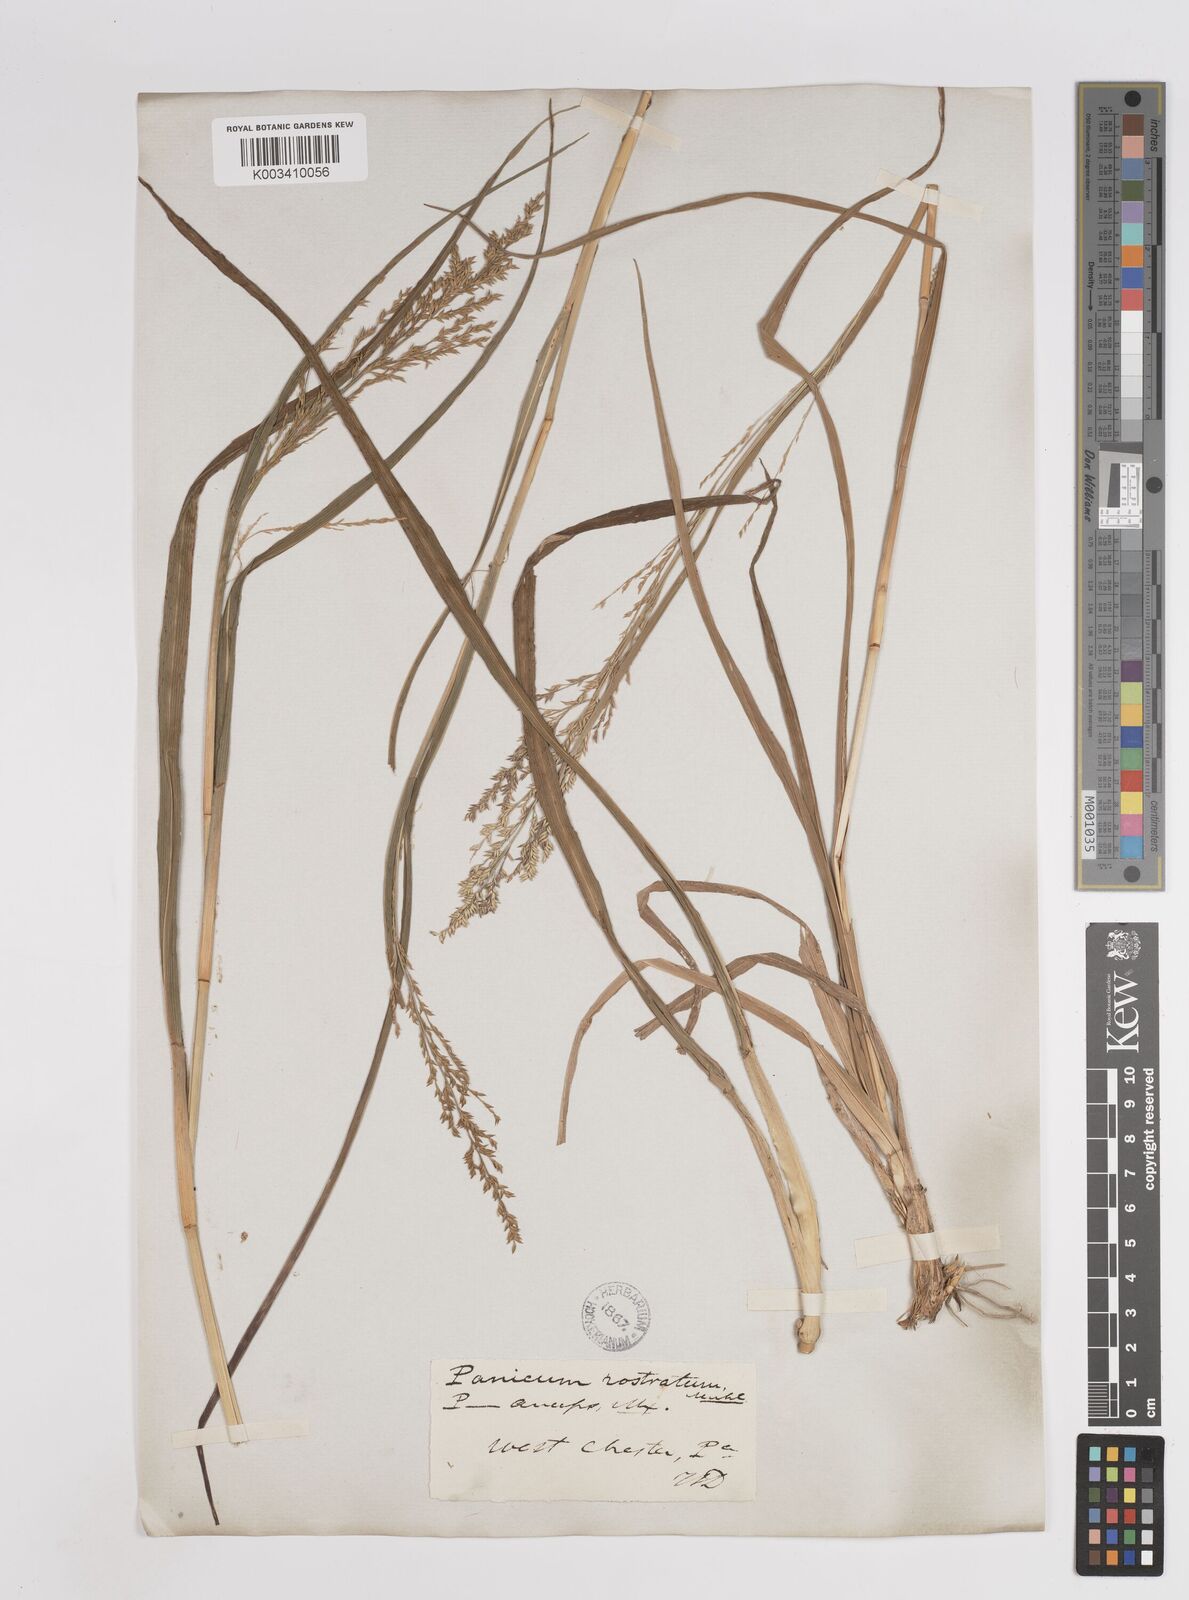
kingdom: Plantae
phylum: Tracheophyta
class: Liliopsida
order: Poales
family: Poaceae
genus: Coleataenia
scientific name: Coleataenia anceps
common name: Beaked panic grass
